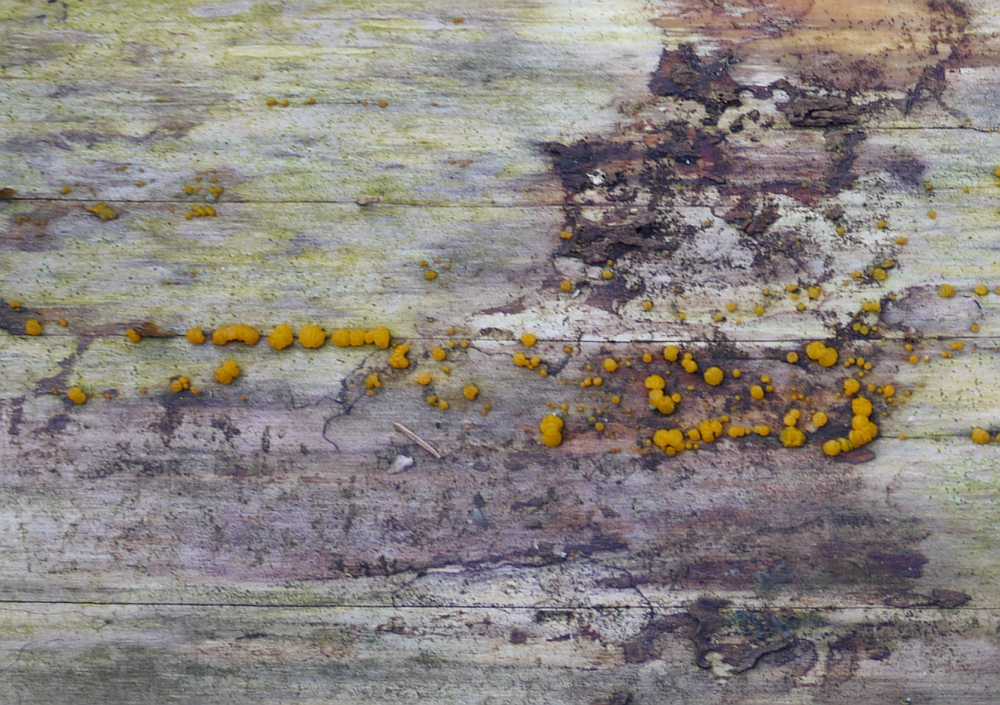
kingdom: Fungi
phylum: Basidiomycota
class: Dacrymycetes
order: Dacrymycetales
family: Dacrymycetaceae
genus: Dacrymyces
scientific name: Dacrymyces stillatus
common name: almindelig tåresvamp
